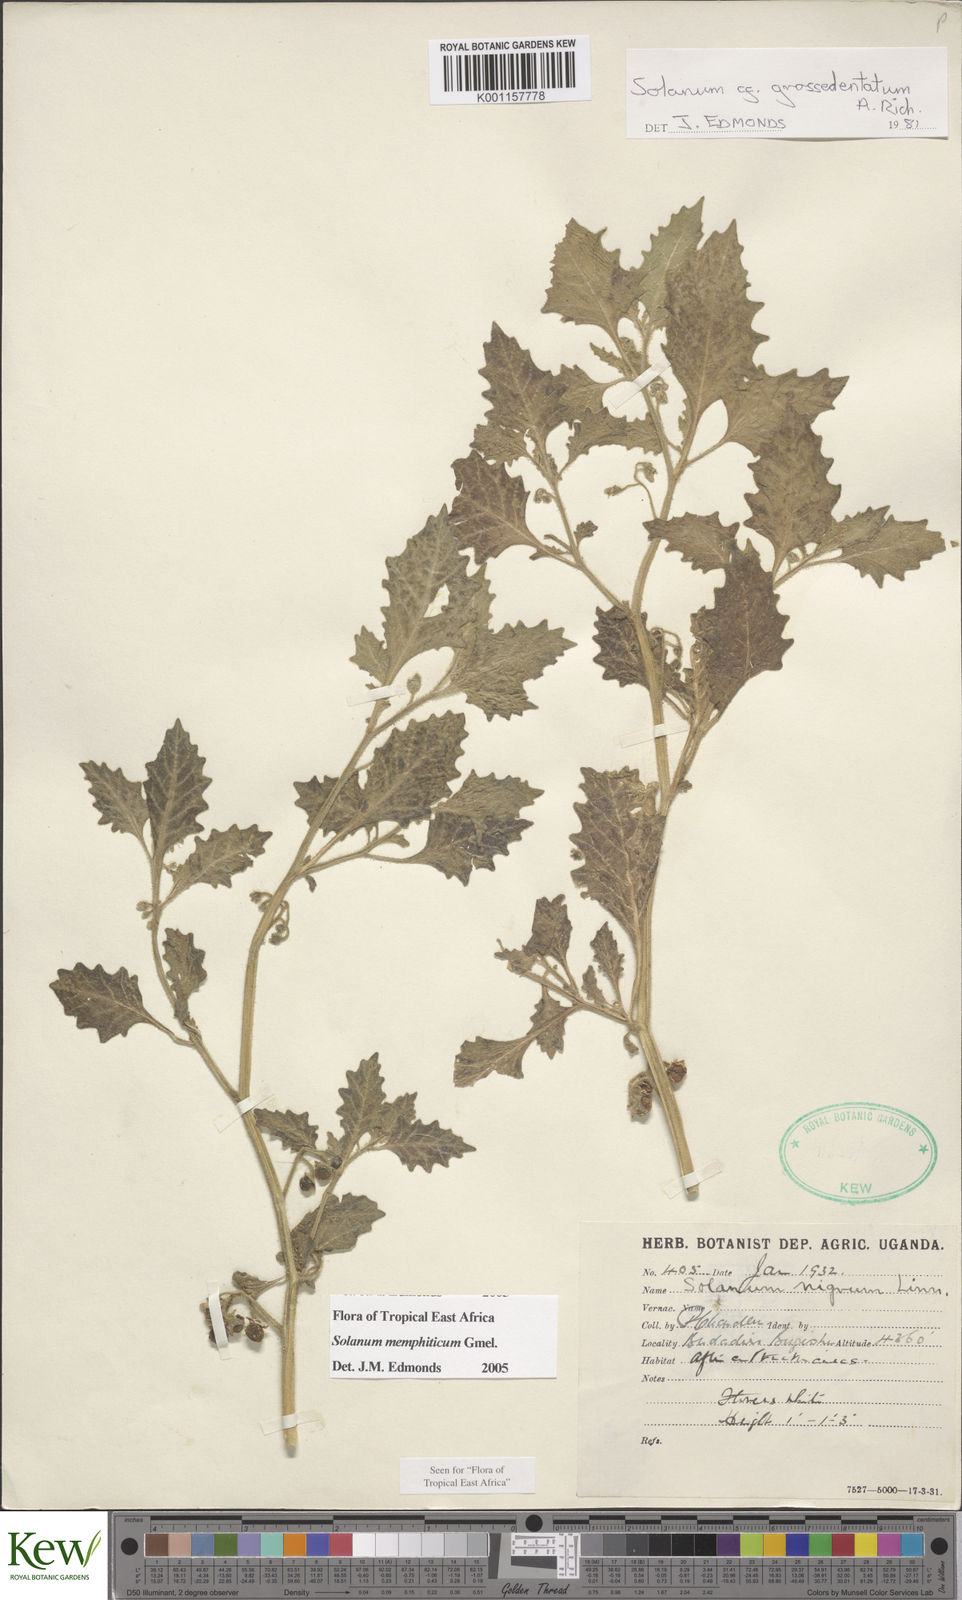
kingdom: Plantae
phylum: Tracheophyta
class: Magnoliopsida
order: Solanales
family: Solanaceae
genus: Solanum
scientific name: Solanum memphiticum
